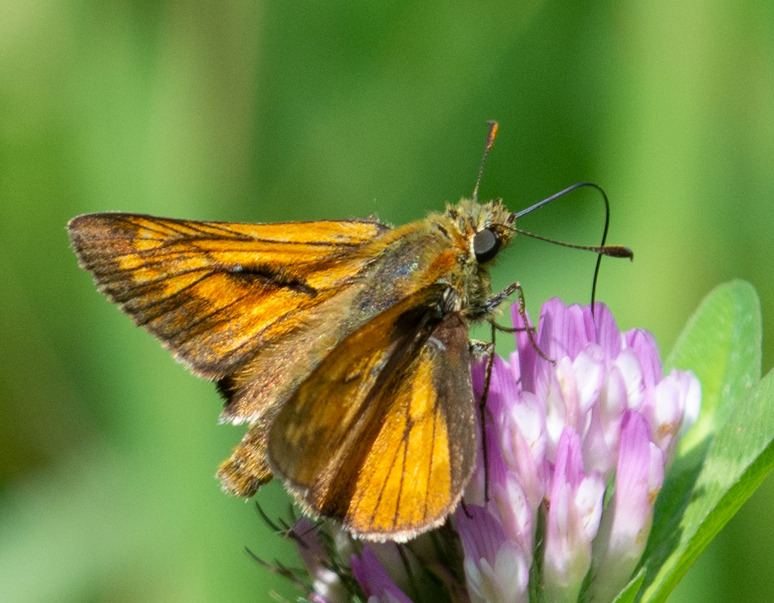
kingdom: Animalia
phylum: Arthropoda
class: Insecta
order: Lepidoptera
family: Hesperiidae
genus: Ochlodes
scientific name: Ochlodes venata
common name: Stor bredpande
